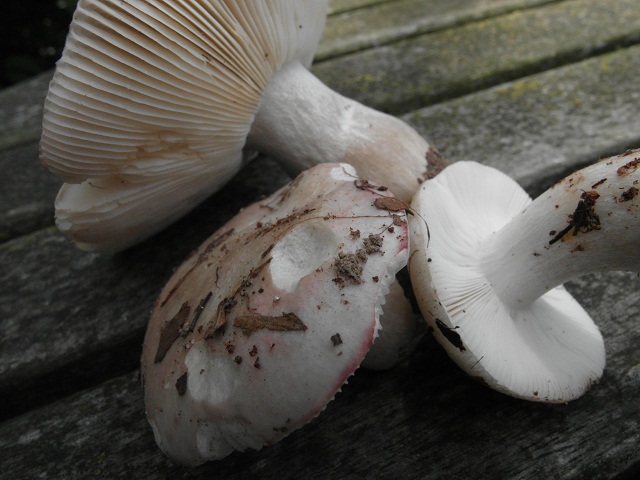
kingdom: Fungi
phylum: Basidiomycota
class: Agaricomycetes
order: Russulales
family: Russulaceae
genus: Russula
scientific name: Russula depallens
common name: falmende skørhat
